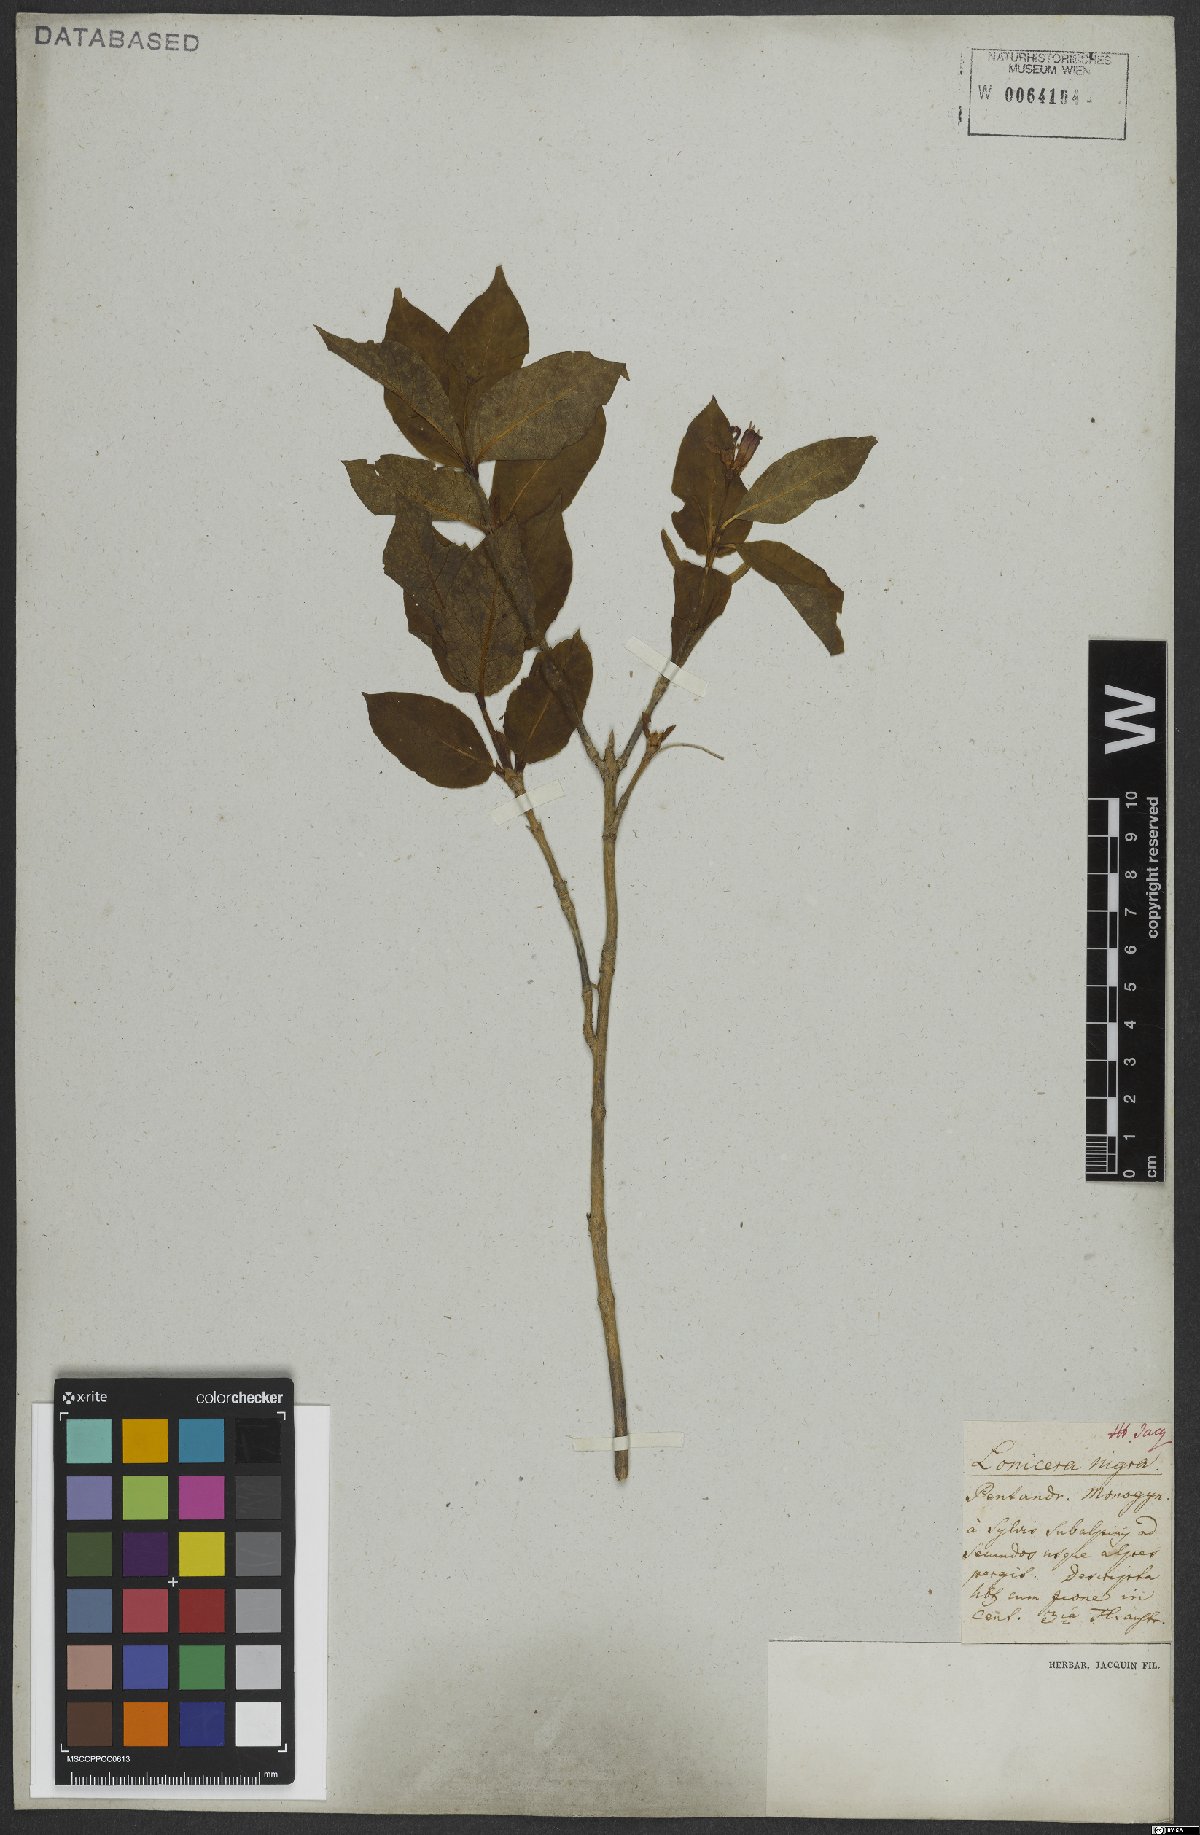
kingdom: Plantae
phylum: Tracheophyta
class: Magnoliopsida
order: Dipsacales
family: Caprifoliaceae
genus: Lonicera
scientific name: Lonicera nigra
